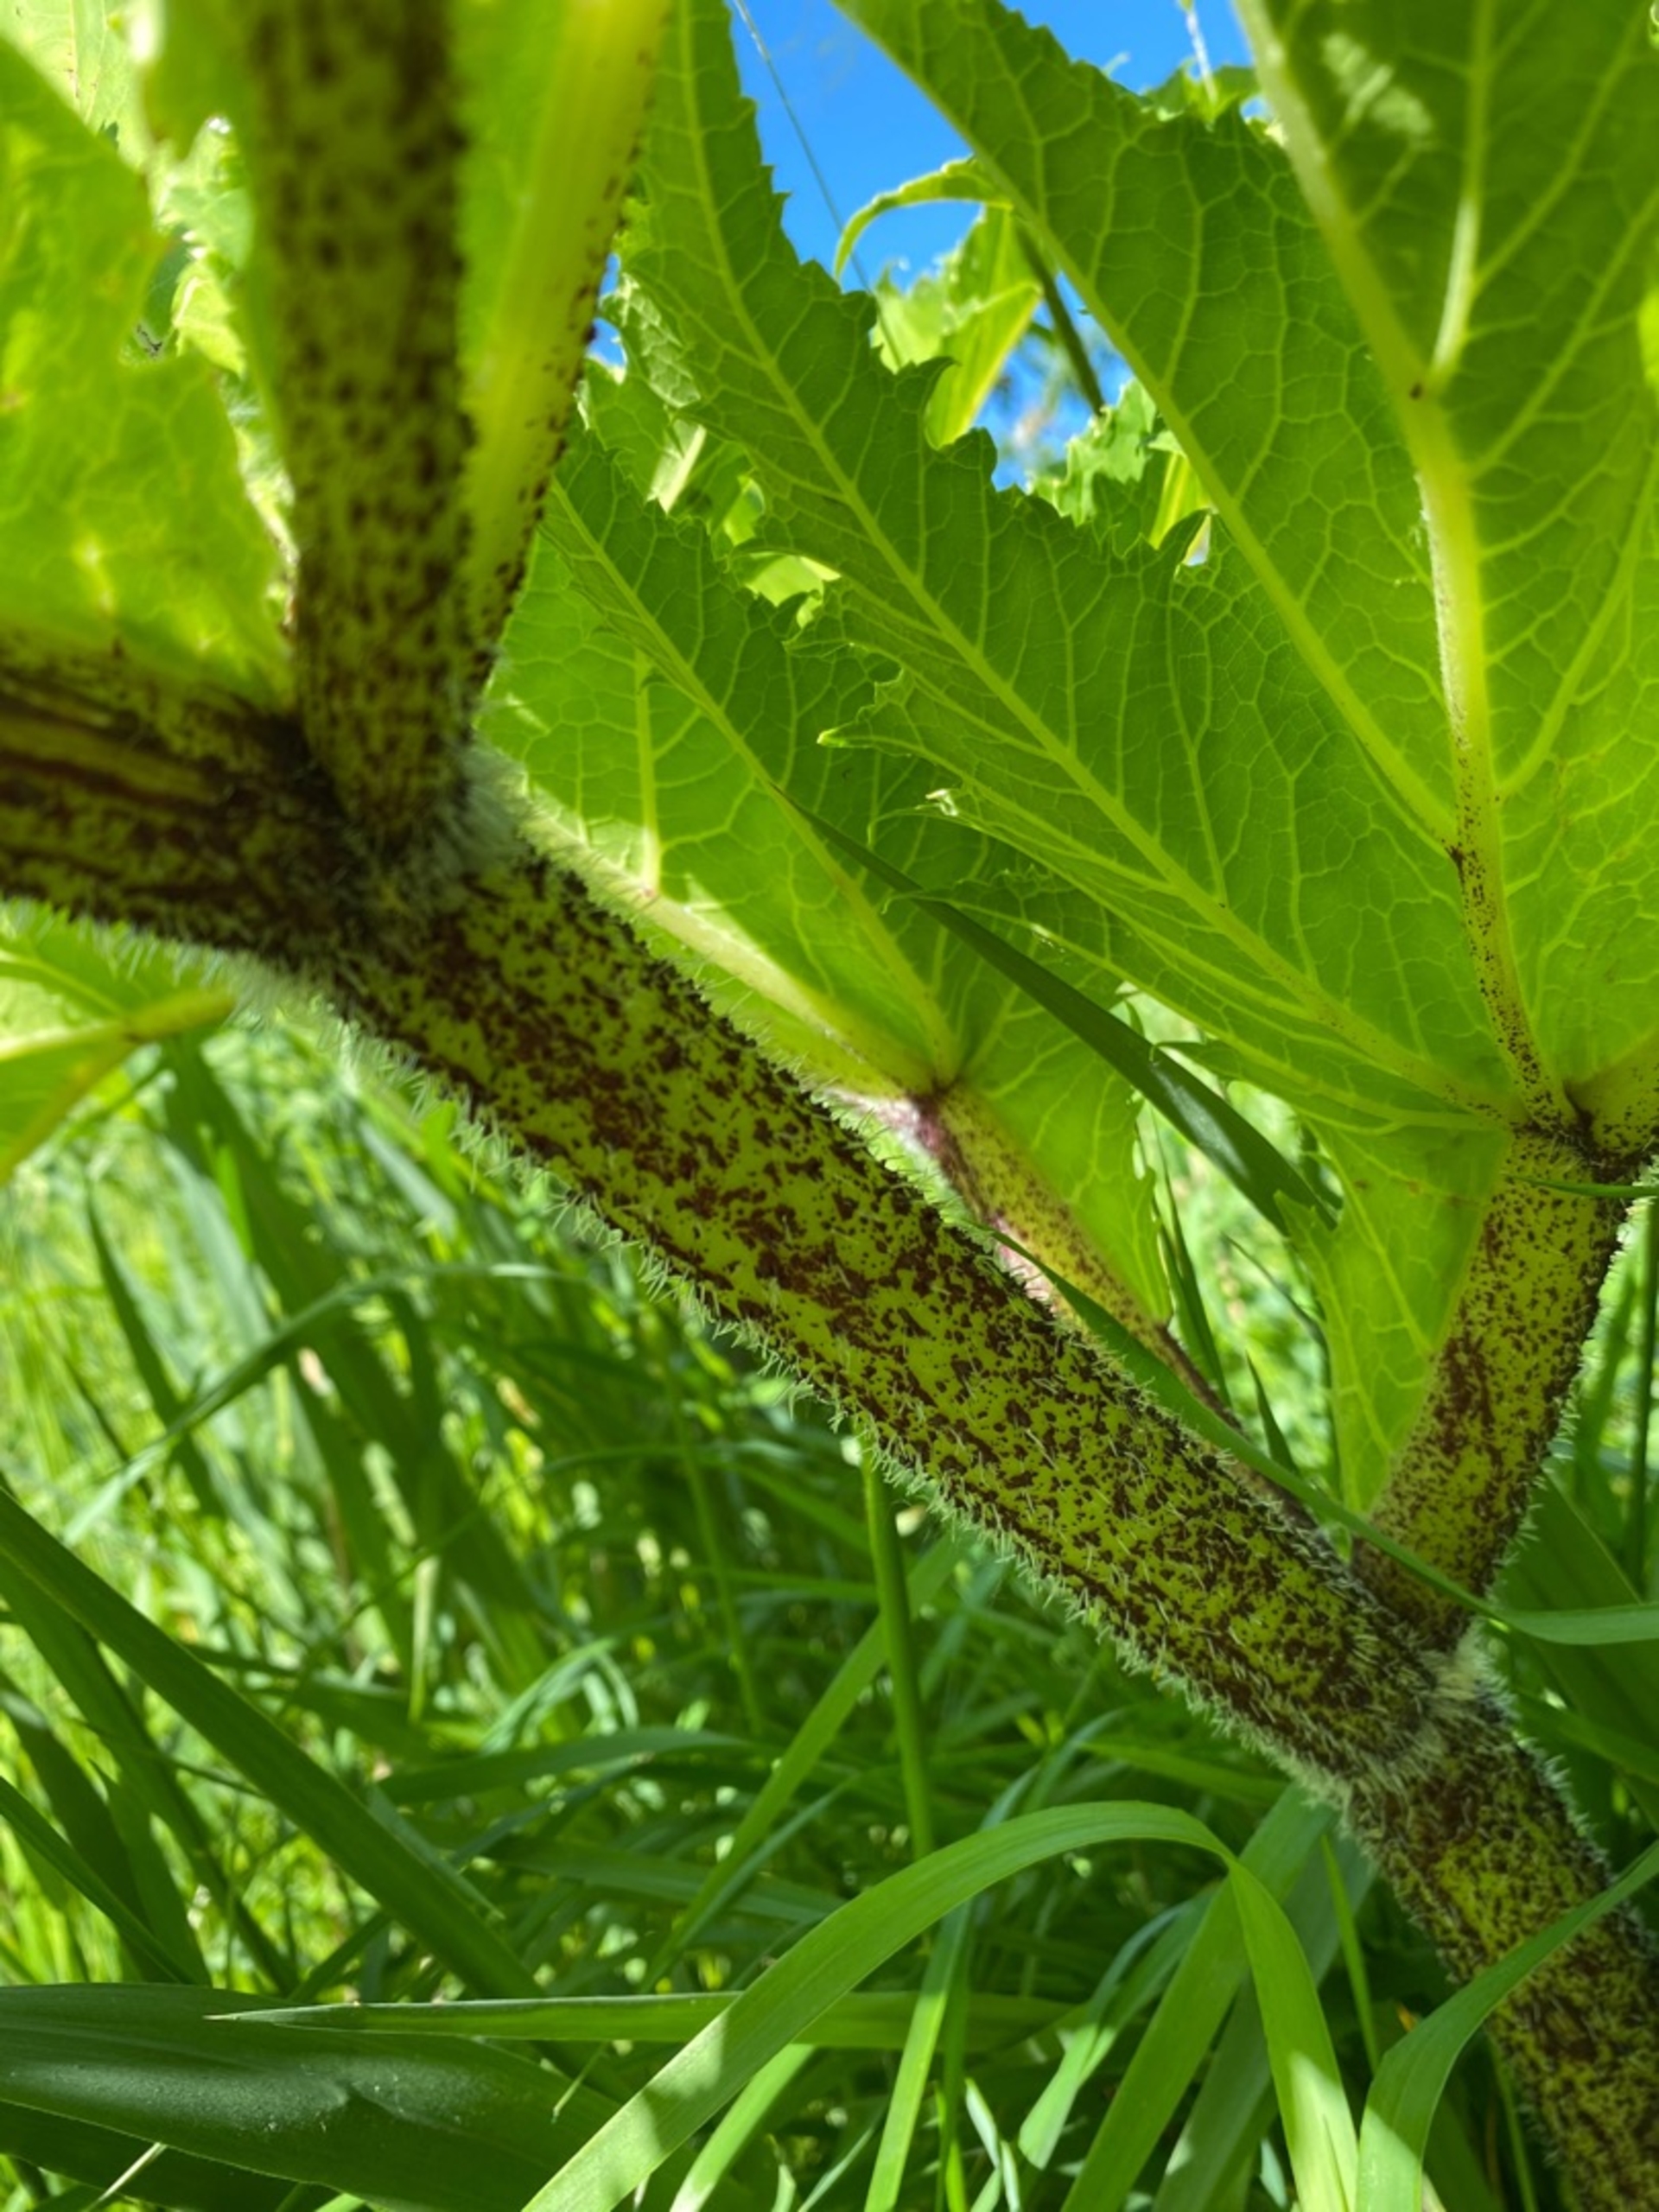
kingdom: Plantae
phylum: Tracheophyta
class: Magnoliopsida
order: Apiales
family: Apiaceae
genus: Heracleum
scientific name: Heracleum mantegazzianum
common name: Kæmpe-bjørneklo
